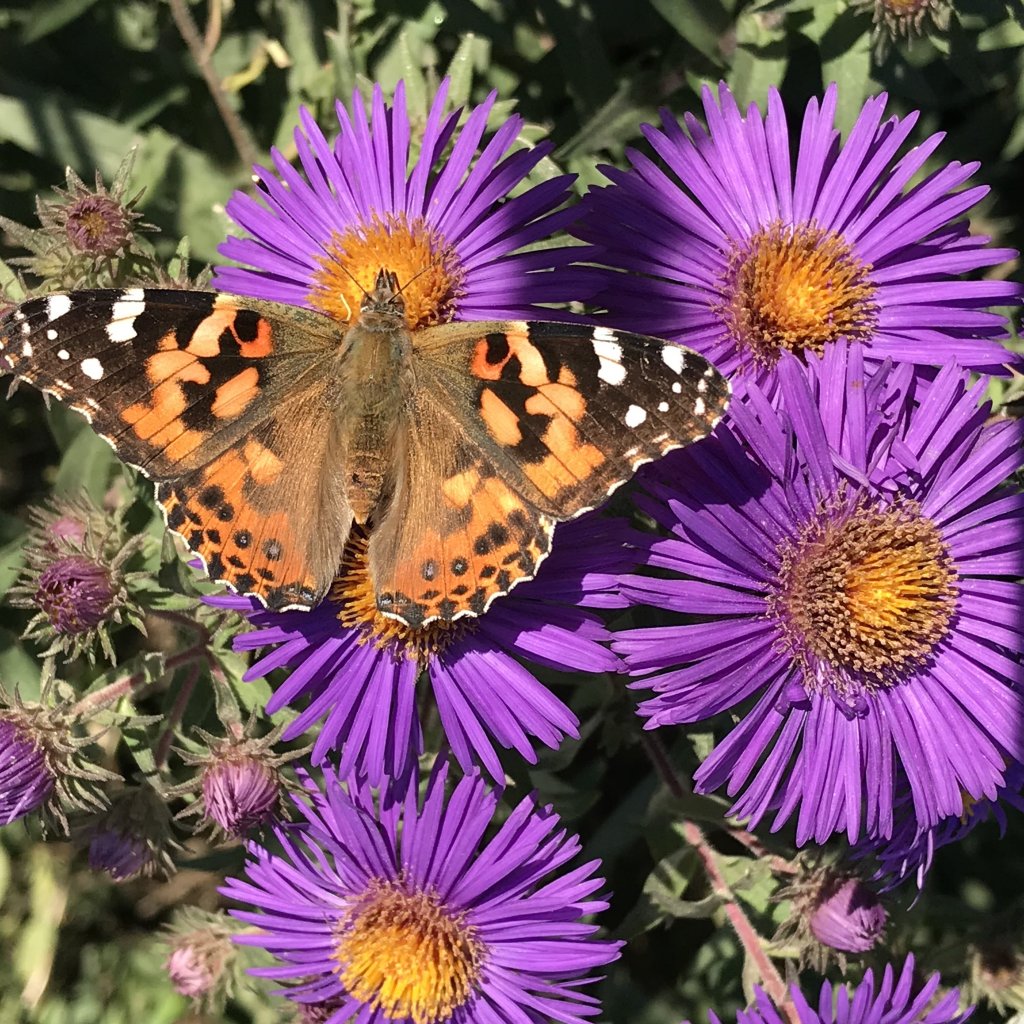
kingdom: Animalia
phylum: Arthropoda
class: Insecta
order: Lepidoptera
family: Nymphalidae
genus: Vanessa
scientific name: Vanessa cardui
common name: Painted Lady
